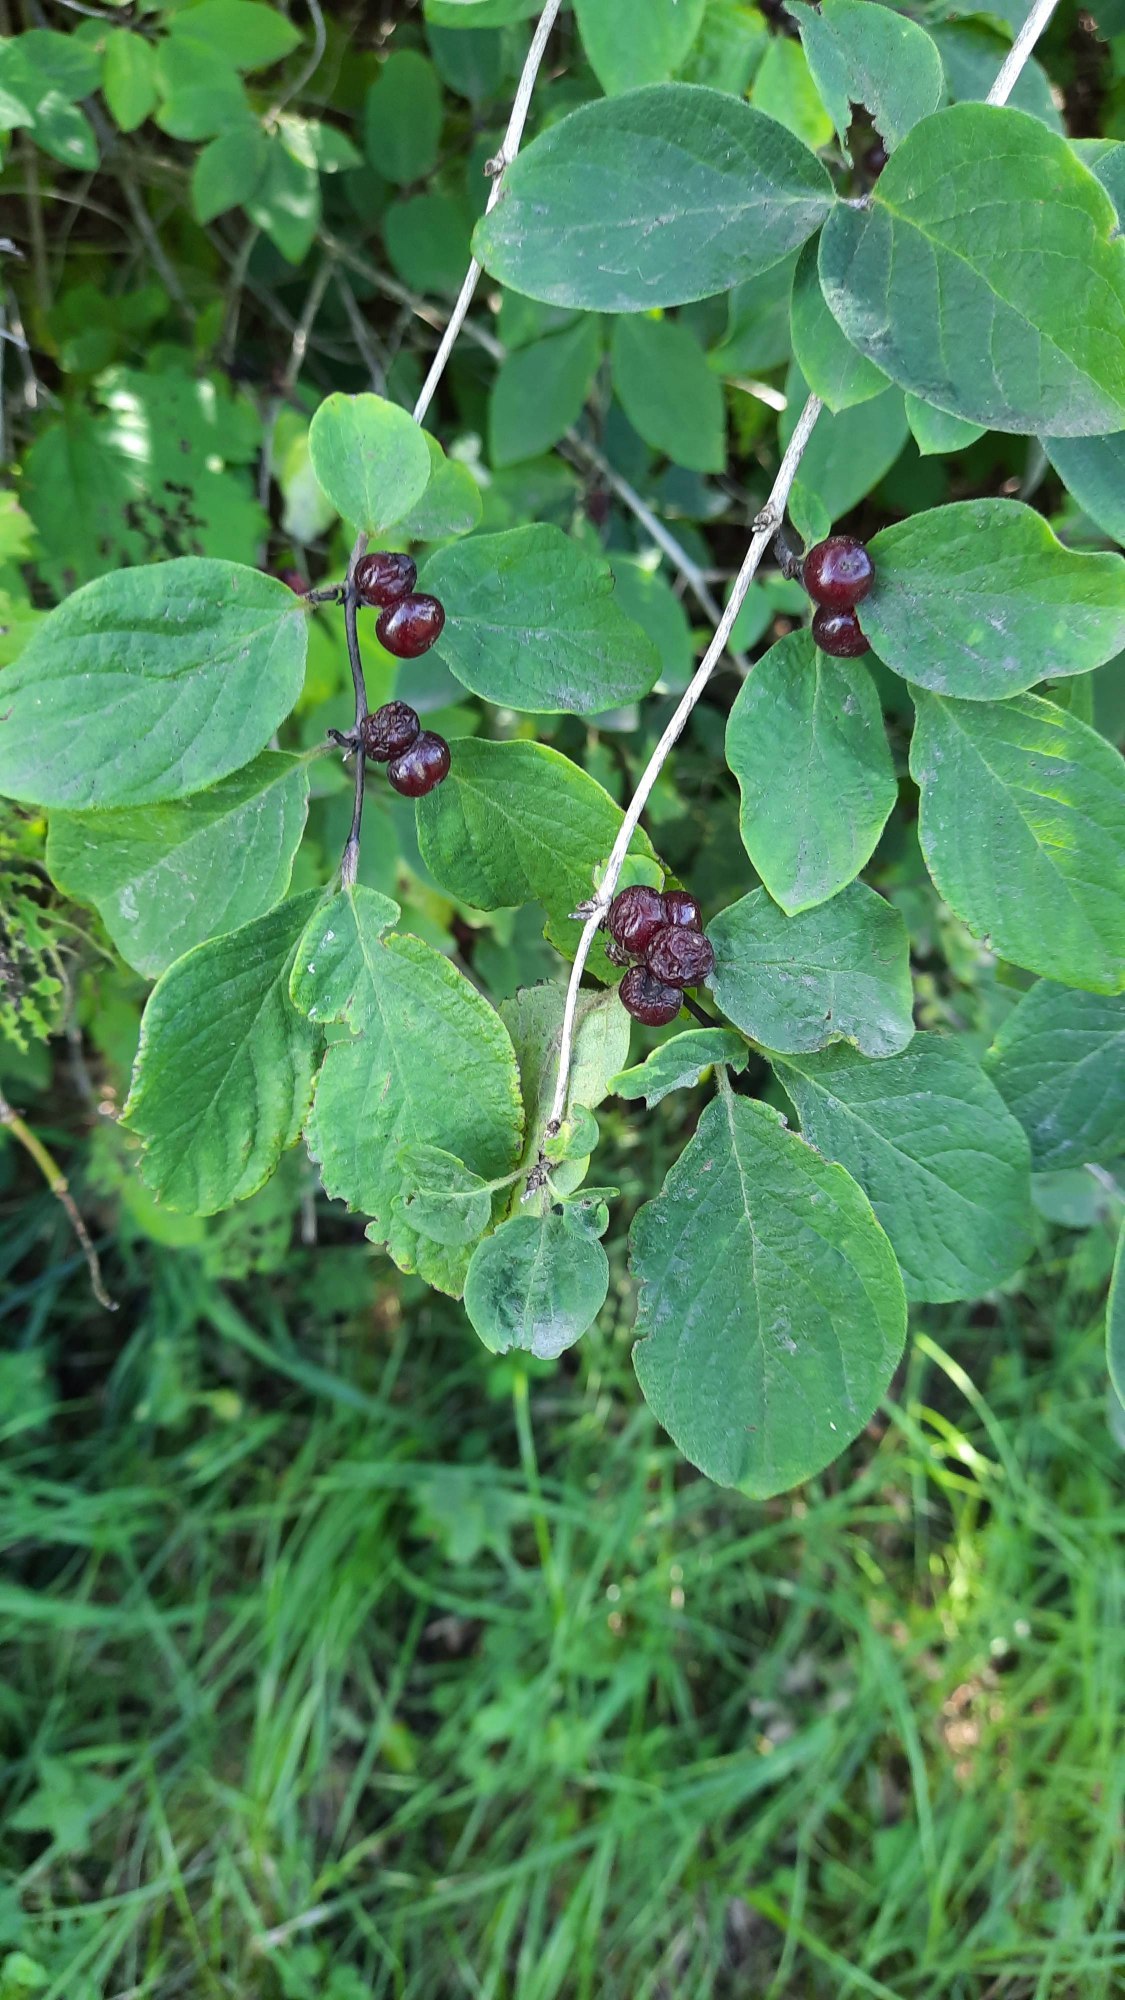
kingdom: Plantae
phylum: Tracheophyta
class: Magnoliopsida
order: Dipsacales
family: Caprifoliaceae
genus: Lonicera
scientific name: Lonicera xylosteum
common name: Dunet gedeblad
